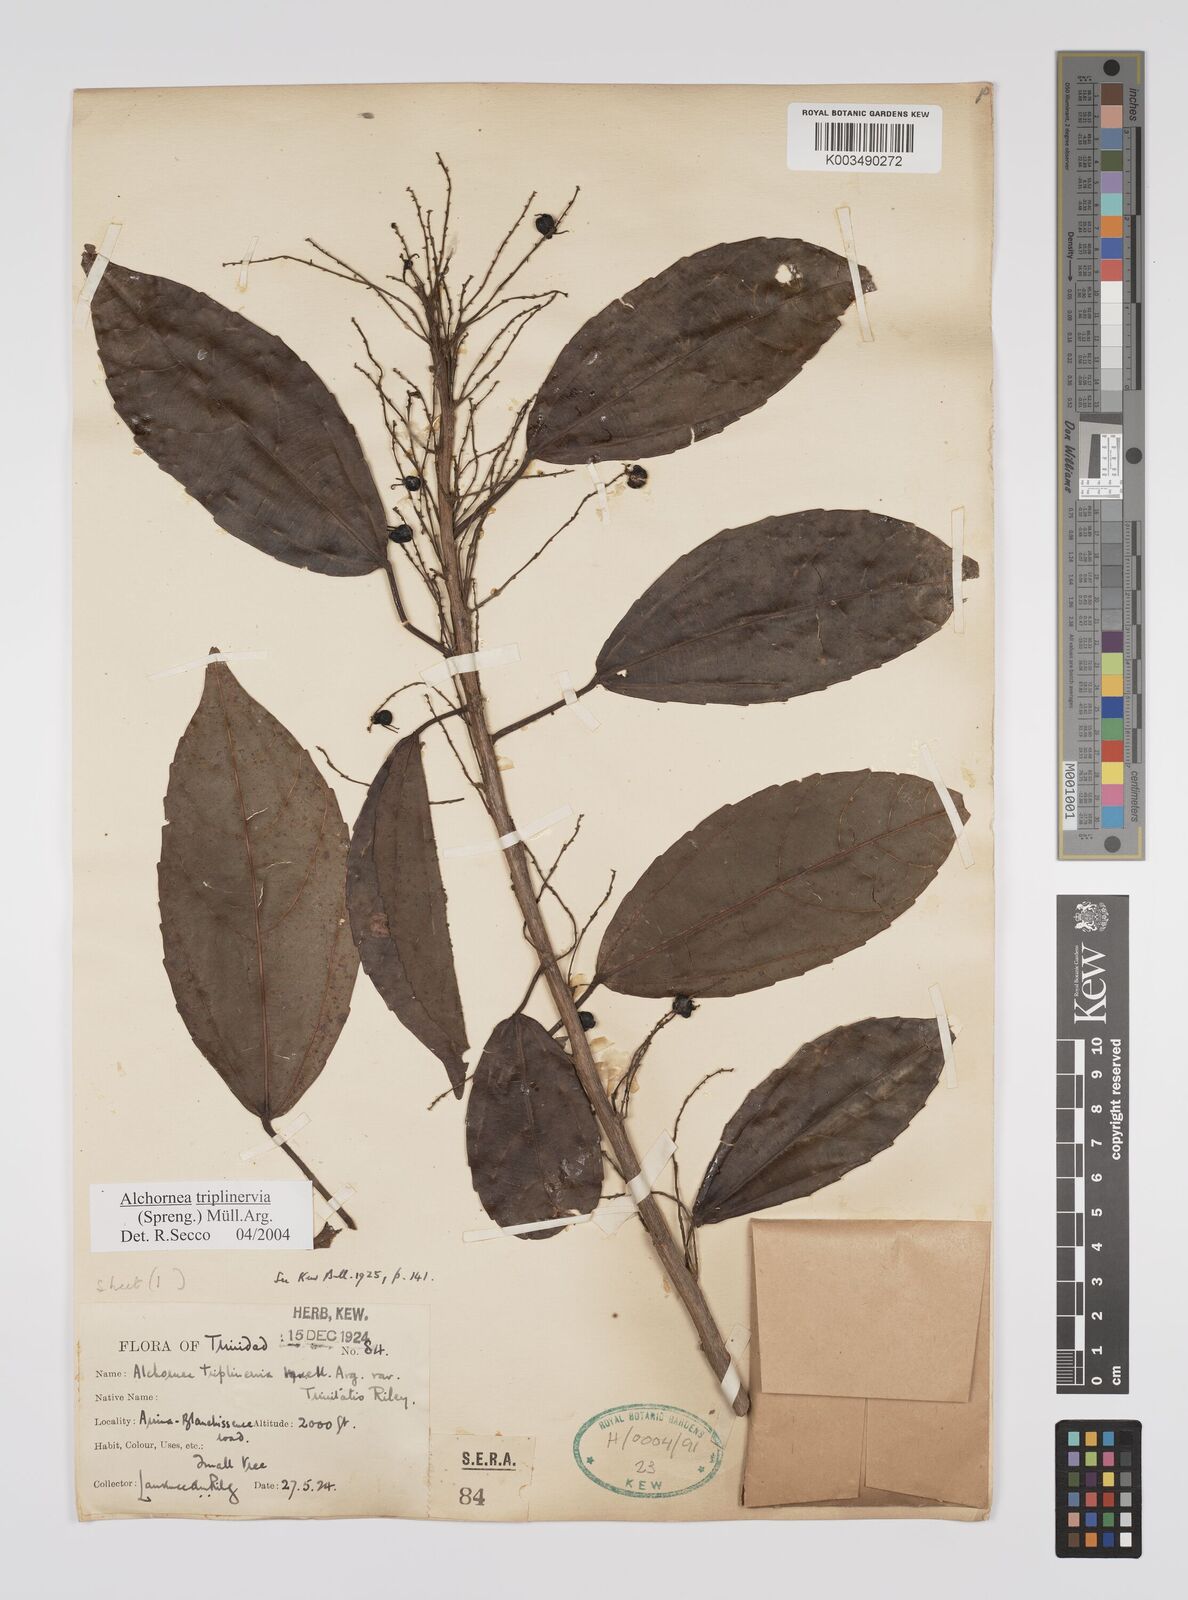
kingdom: Plantae
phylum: Tracheophyta
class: Magnoliopsida
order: Malpighiales
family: Euphorbiaceae
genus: Alchornea
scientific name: Alchornea latifolia
